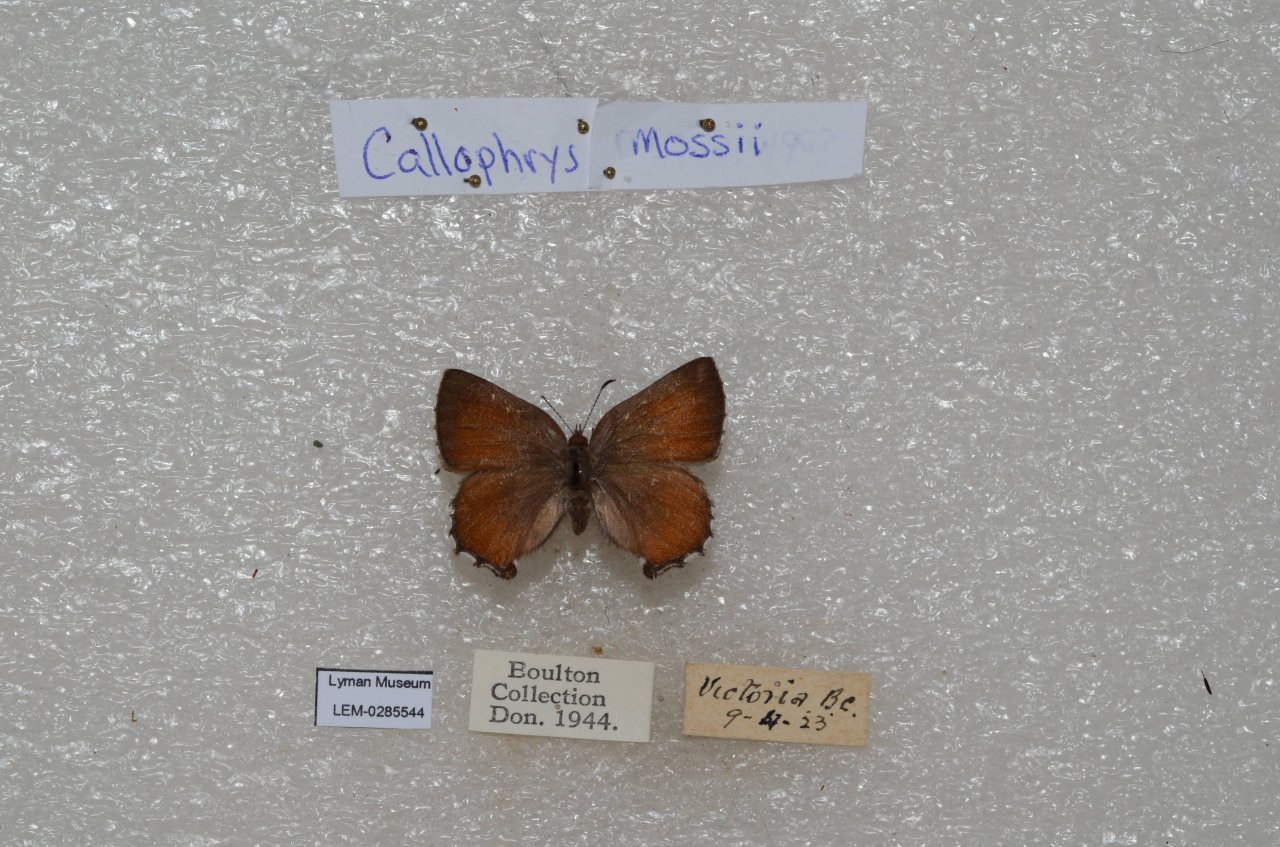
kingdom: Animalia
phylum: Arthropoda
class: Insecta
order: Lepidoptera
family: Lycaenidae
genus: Callophrys
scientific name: Callophrys mossii
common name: Moss' Elfin
